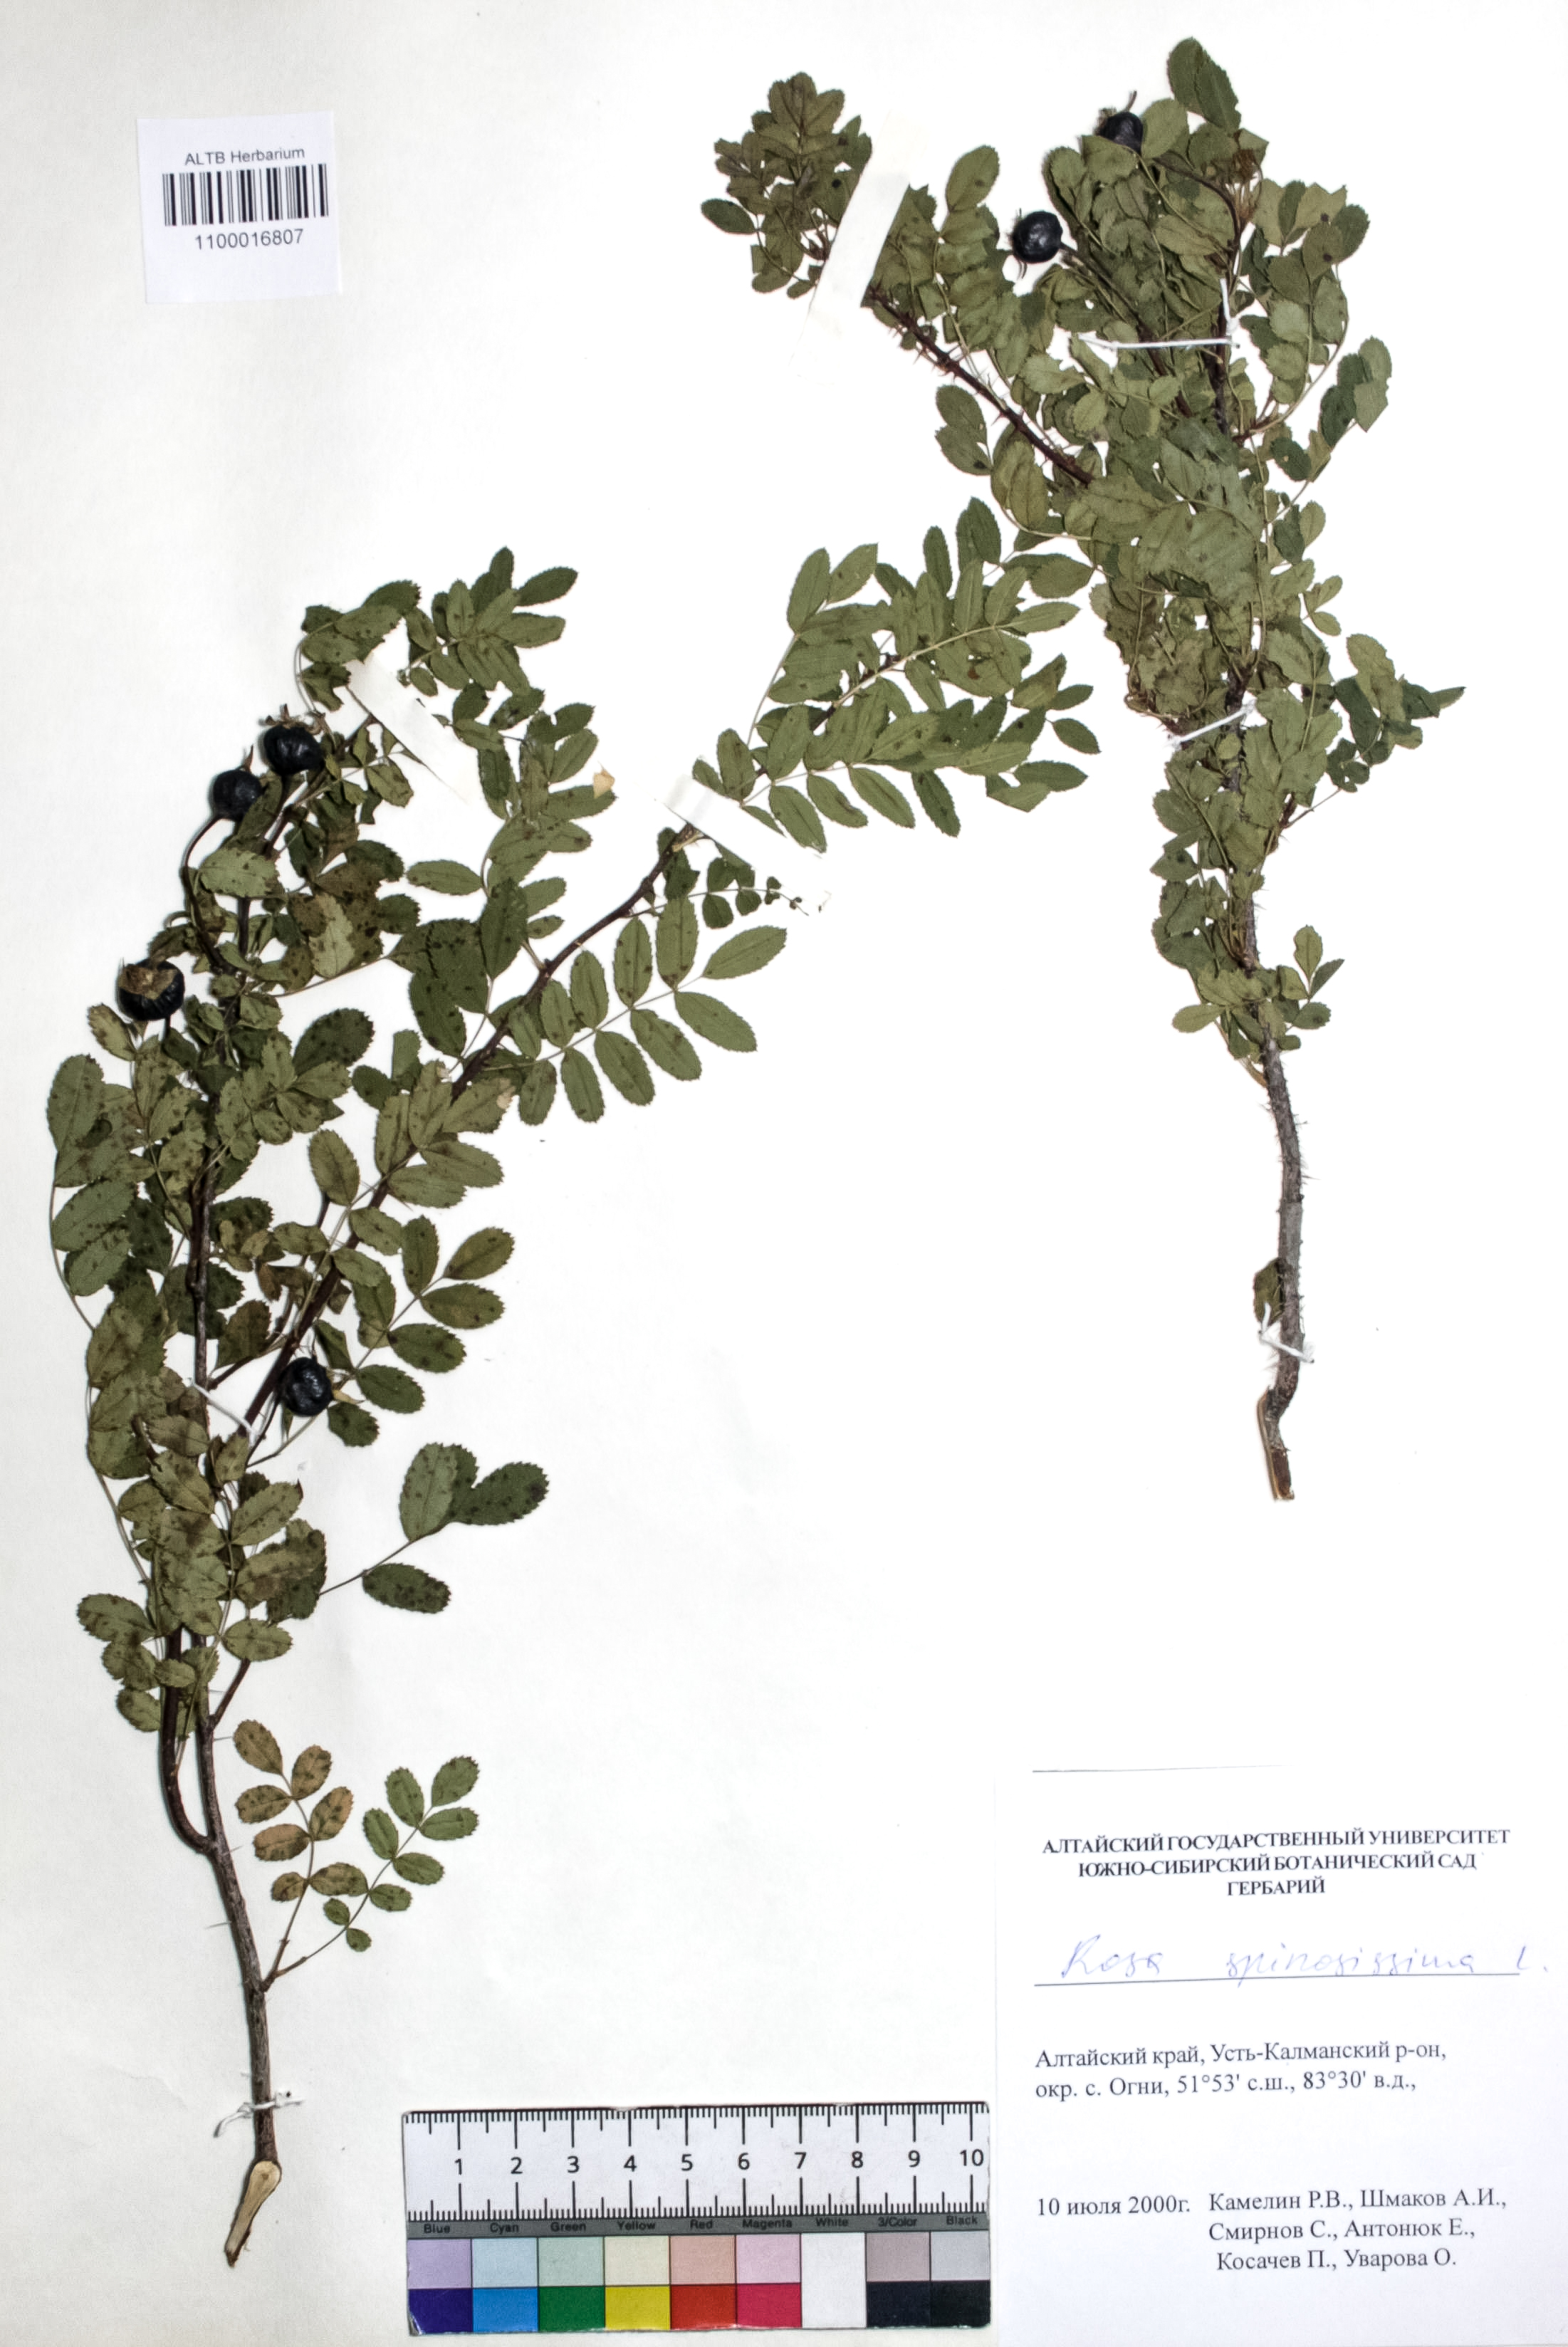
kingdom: Plantae
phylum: Tracheophyta
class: Magnoliopsida
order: Rosales
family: Rosaceae
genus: Rosa
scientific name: Rosa spinosissima
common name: Burnet rose
